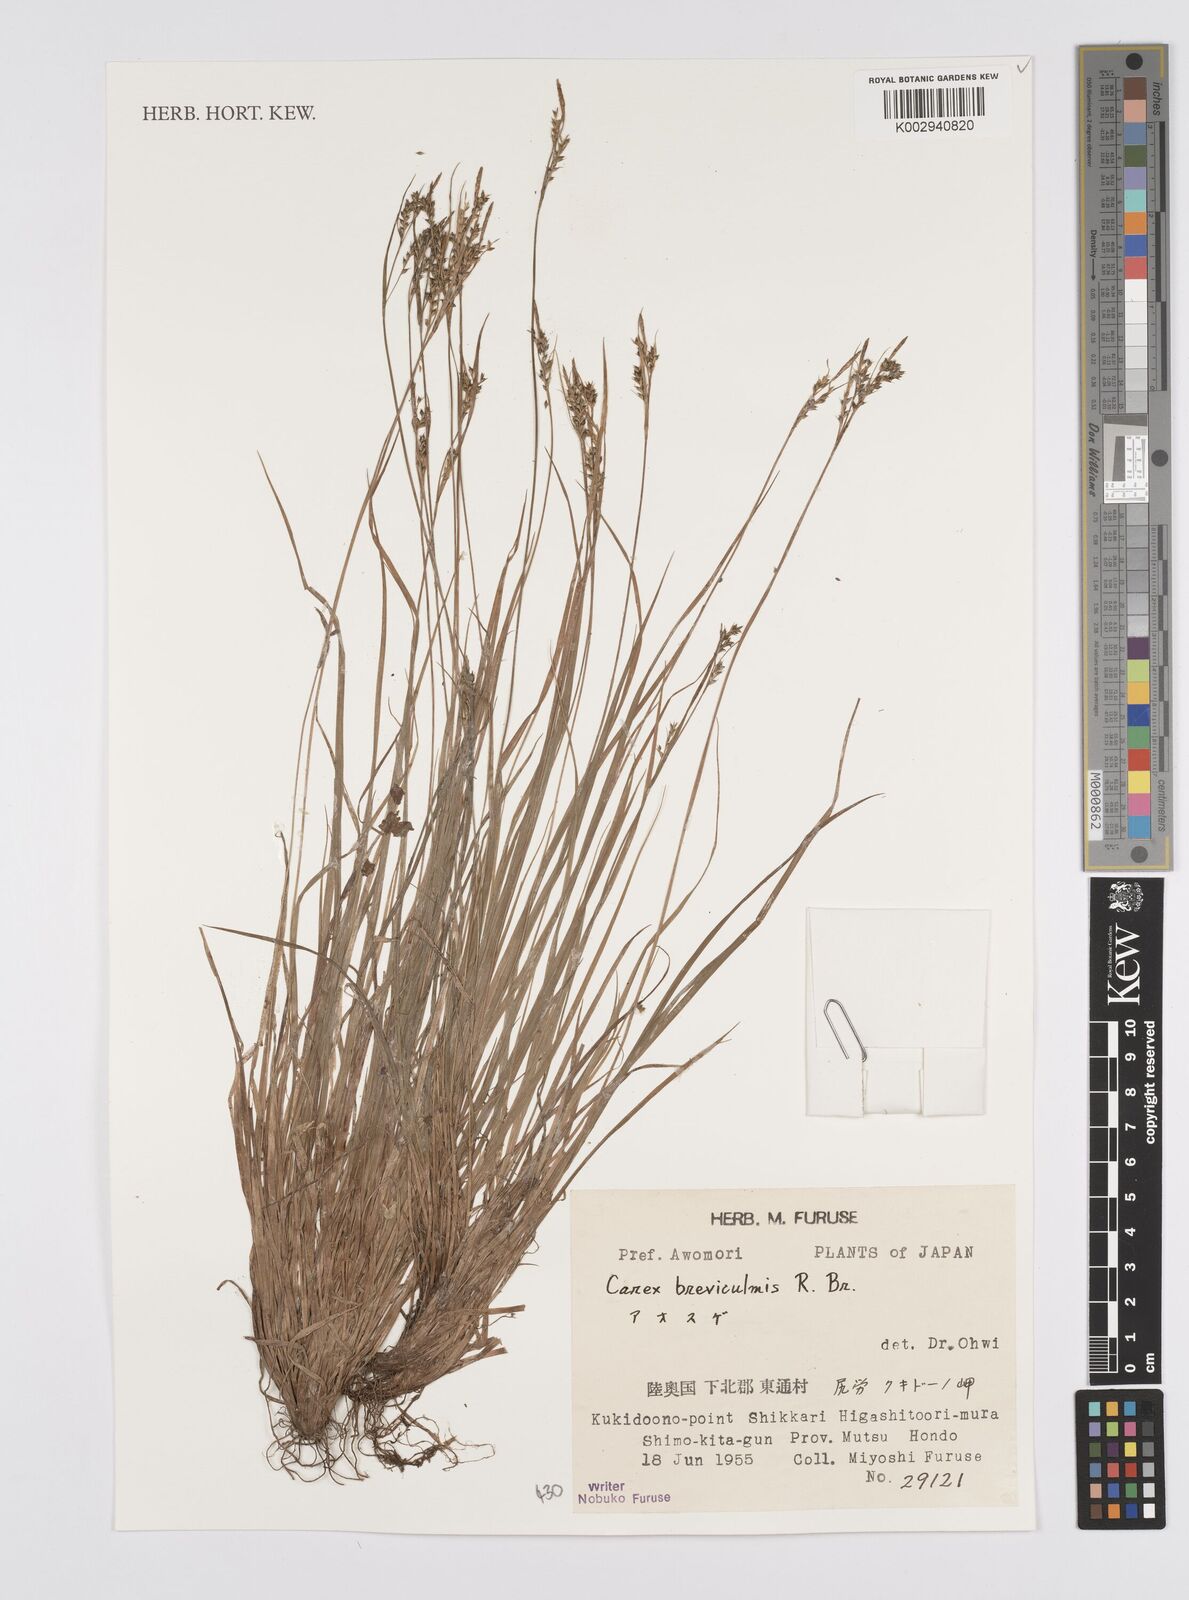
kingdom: Plantae
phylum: Tracheophyta
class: Liliopsida
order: Poales
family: Cyperaceae
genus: Carex
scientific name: Carex breviculmis
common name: Asian shortstem sedge
